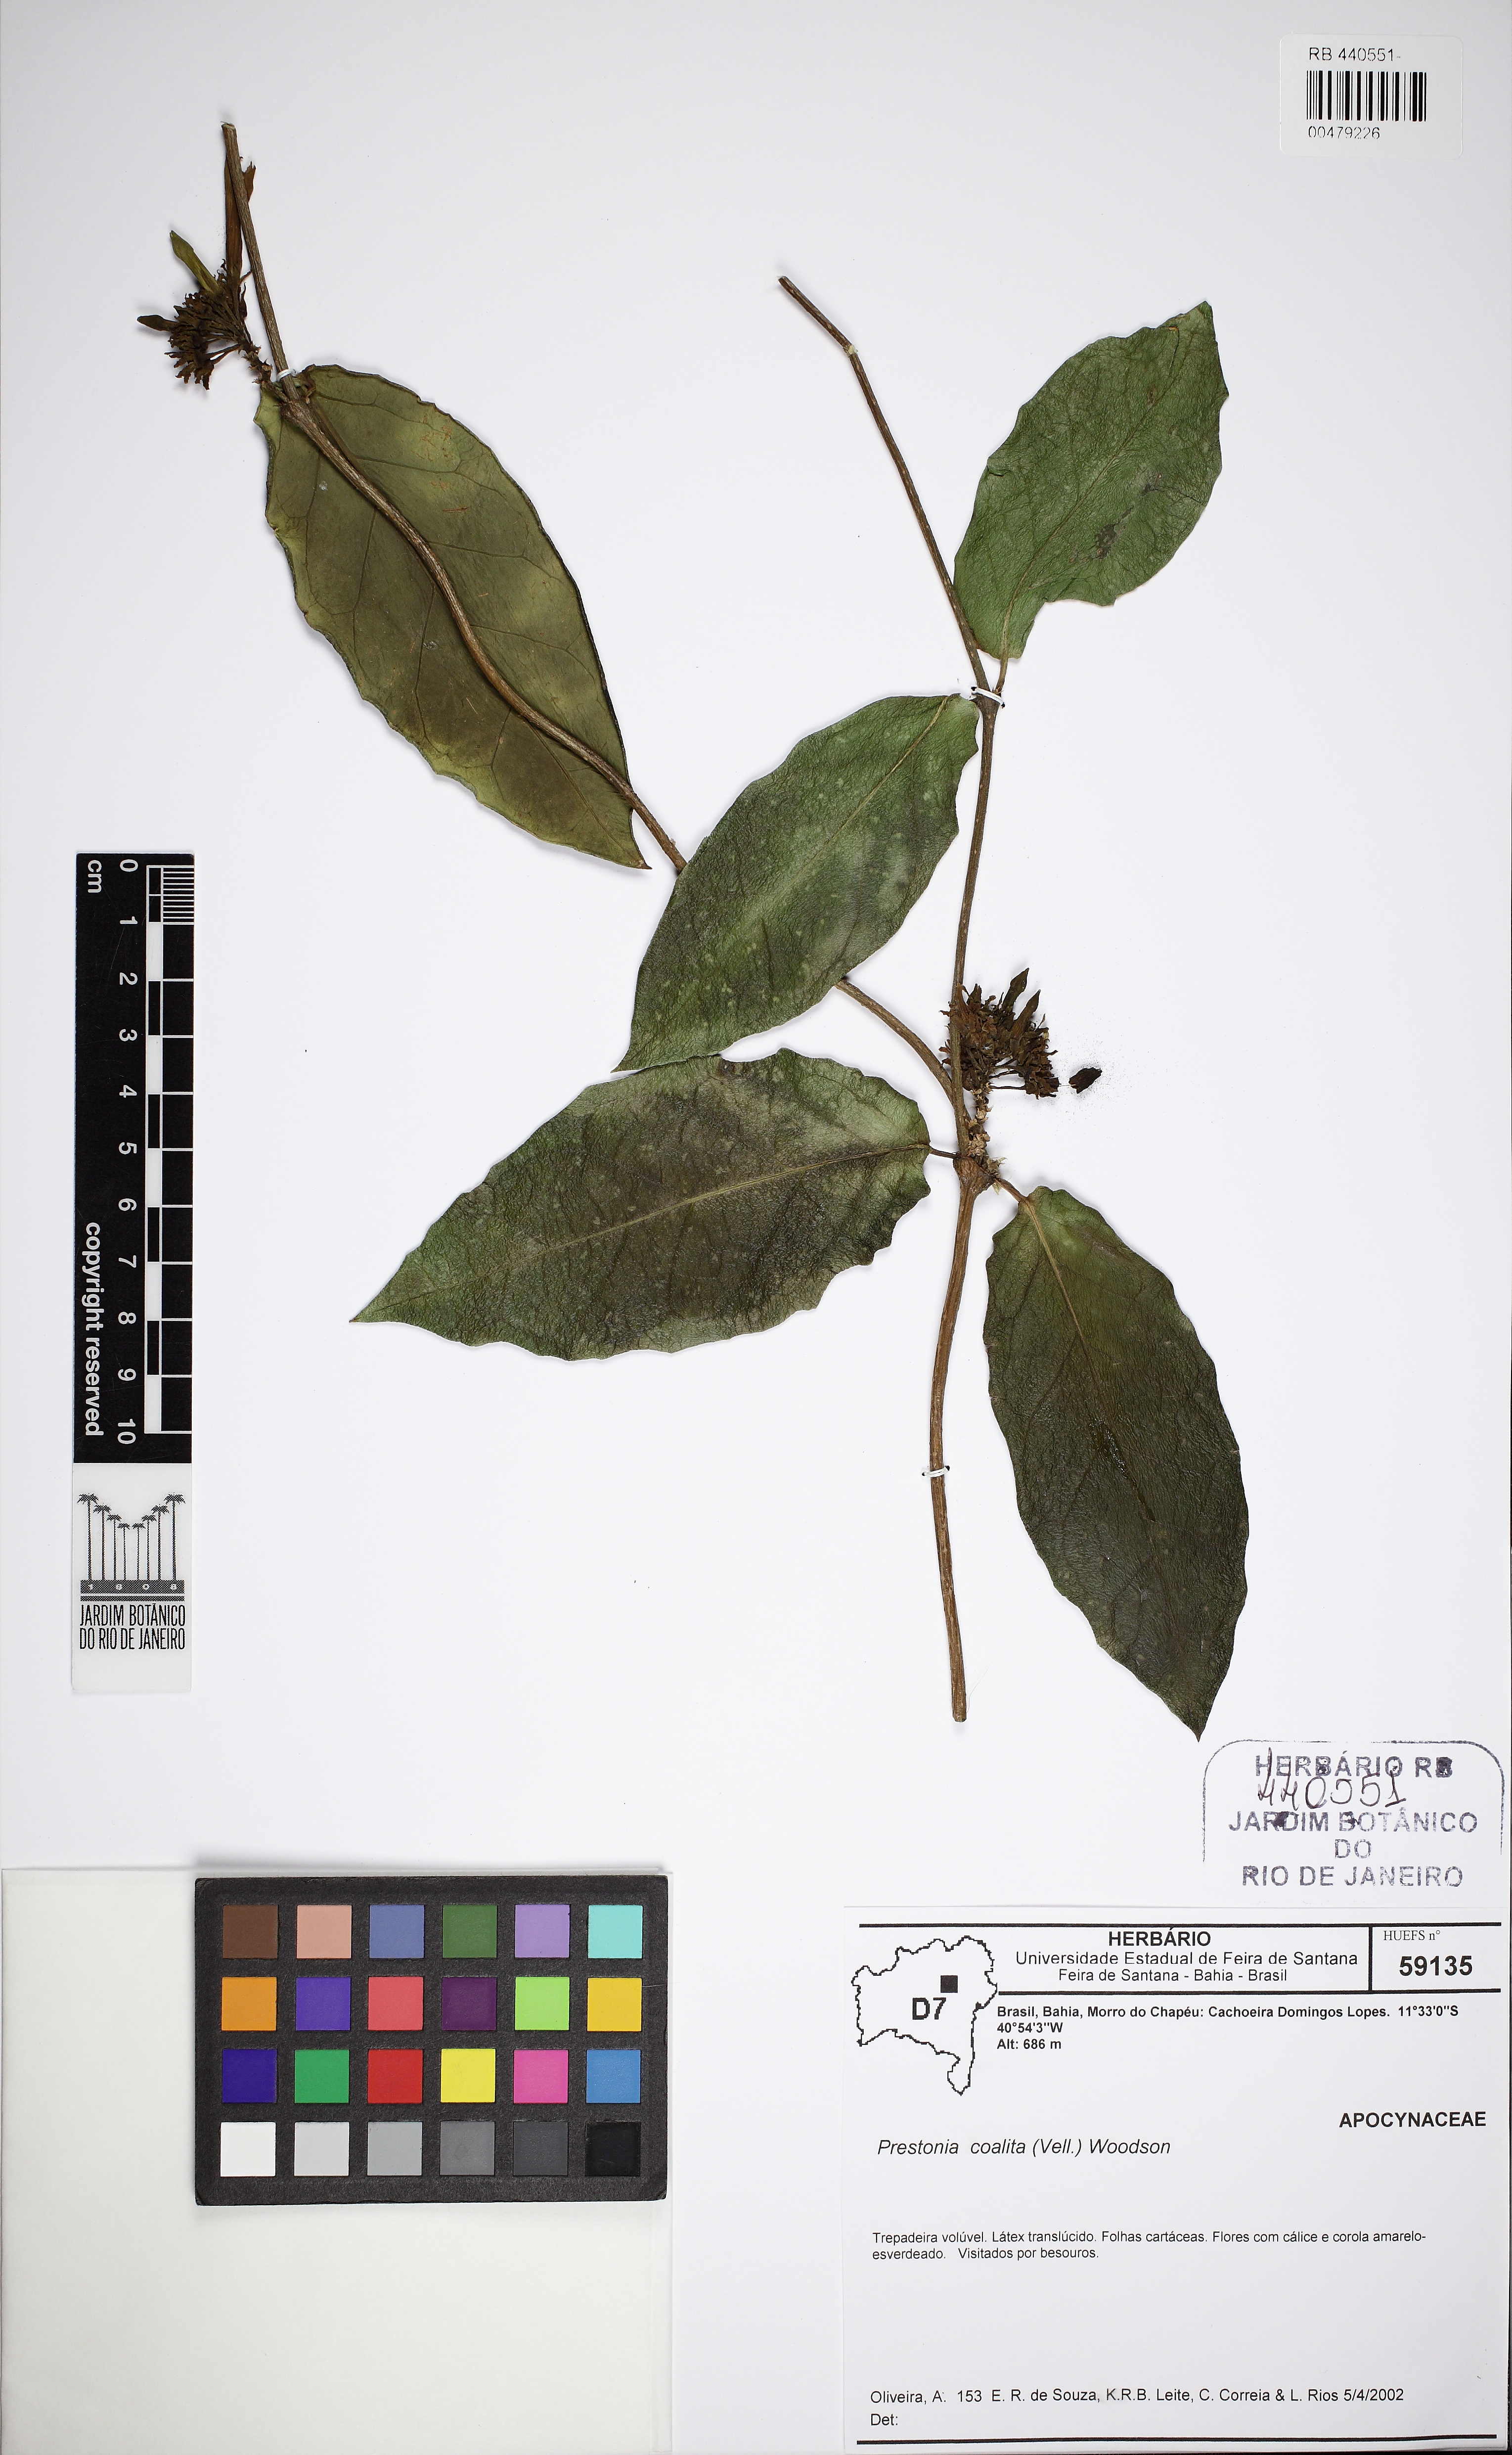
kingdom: Plantae
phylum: Tracheophyta
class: Magnoliopsida
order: Gentianales
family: Apocynaceae
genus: Prestonia
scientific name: Prestonia coalita
